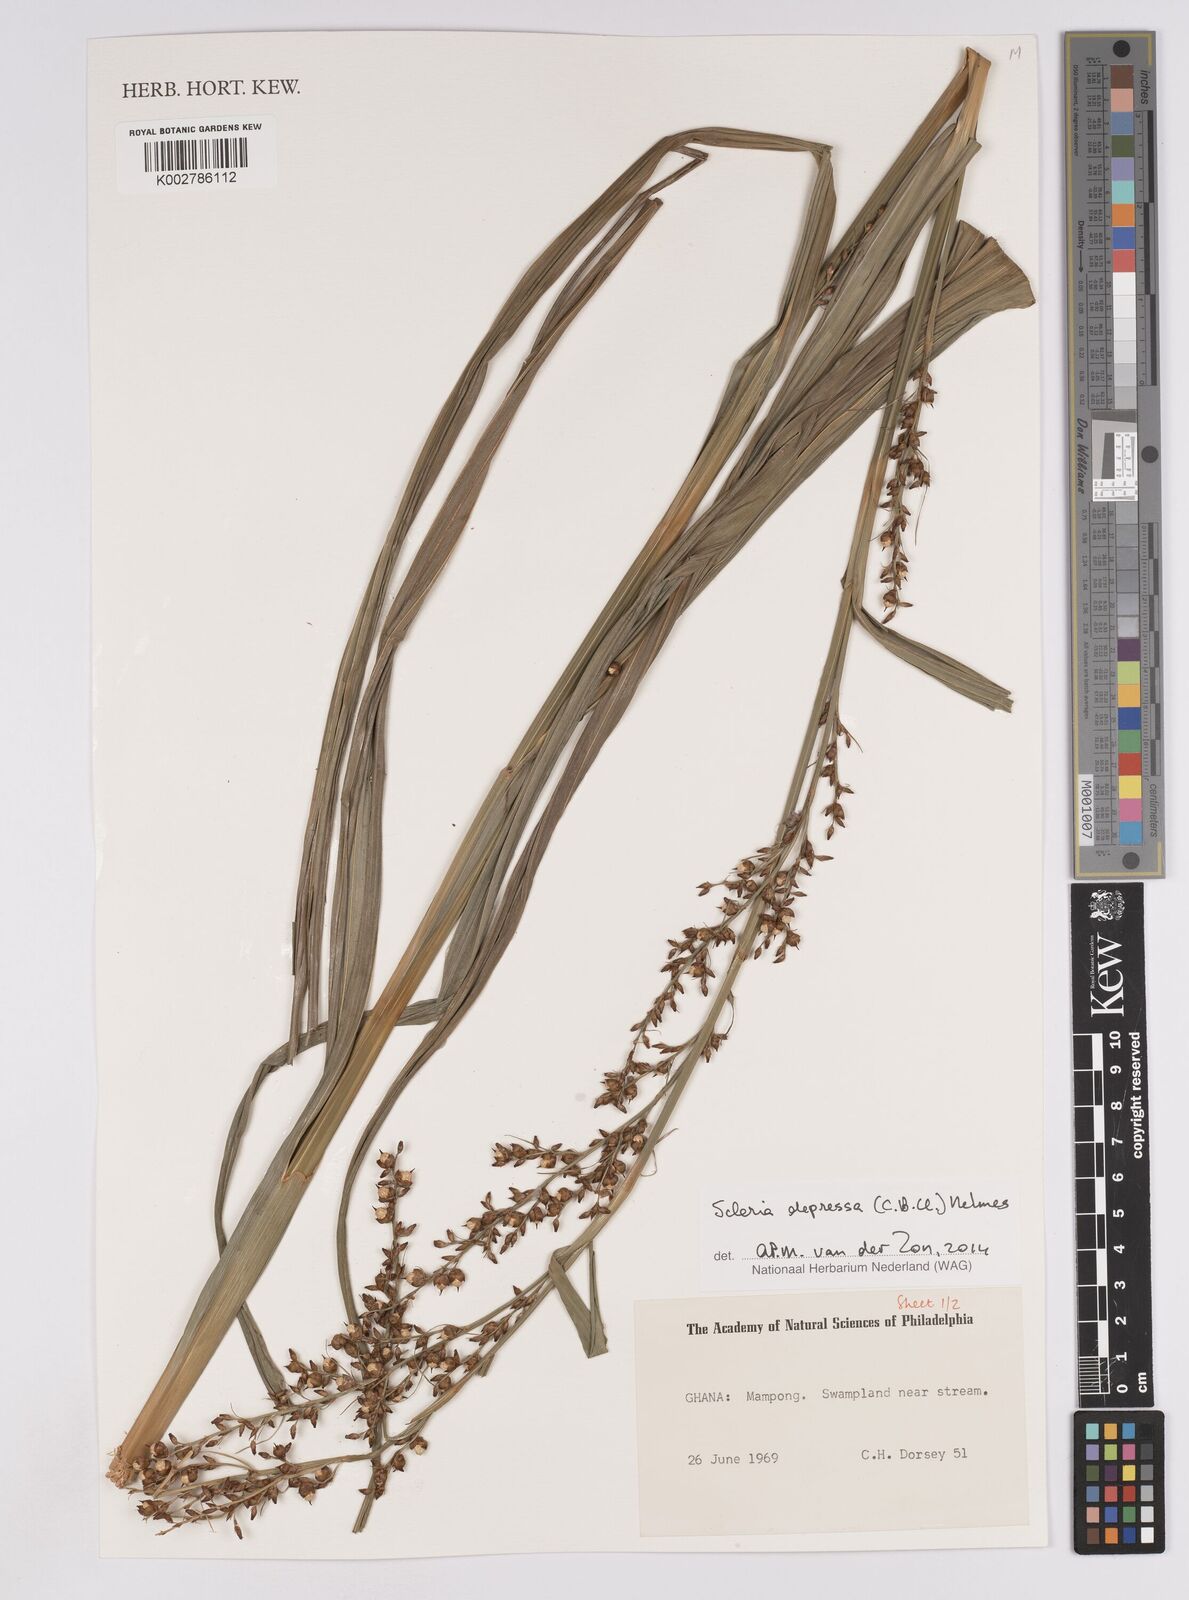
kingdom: Plantae
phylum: Tracheophyta
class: Liliopsida
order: Poales
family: Cyperaceae
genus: Scleria
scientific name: Scleria depressa
